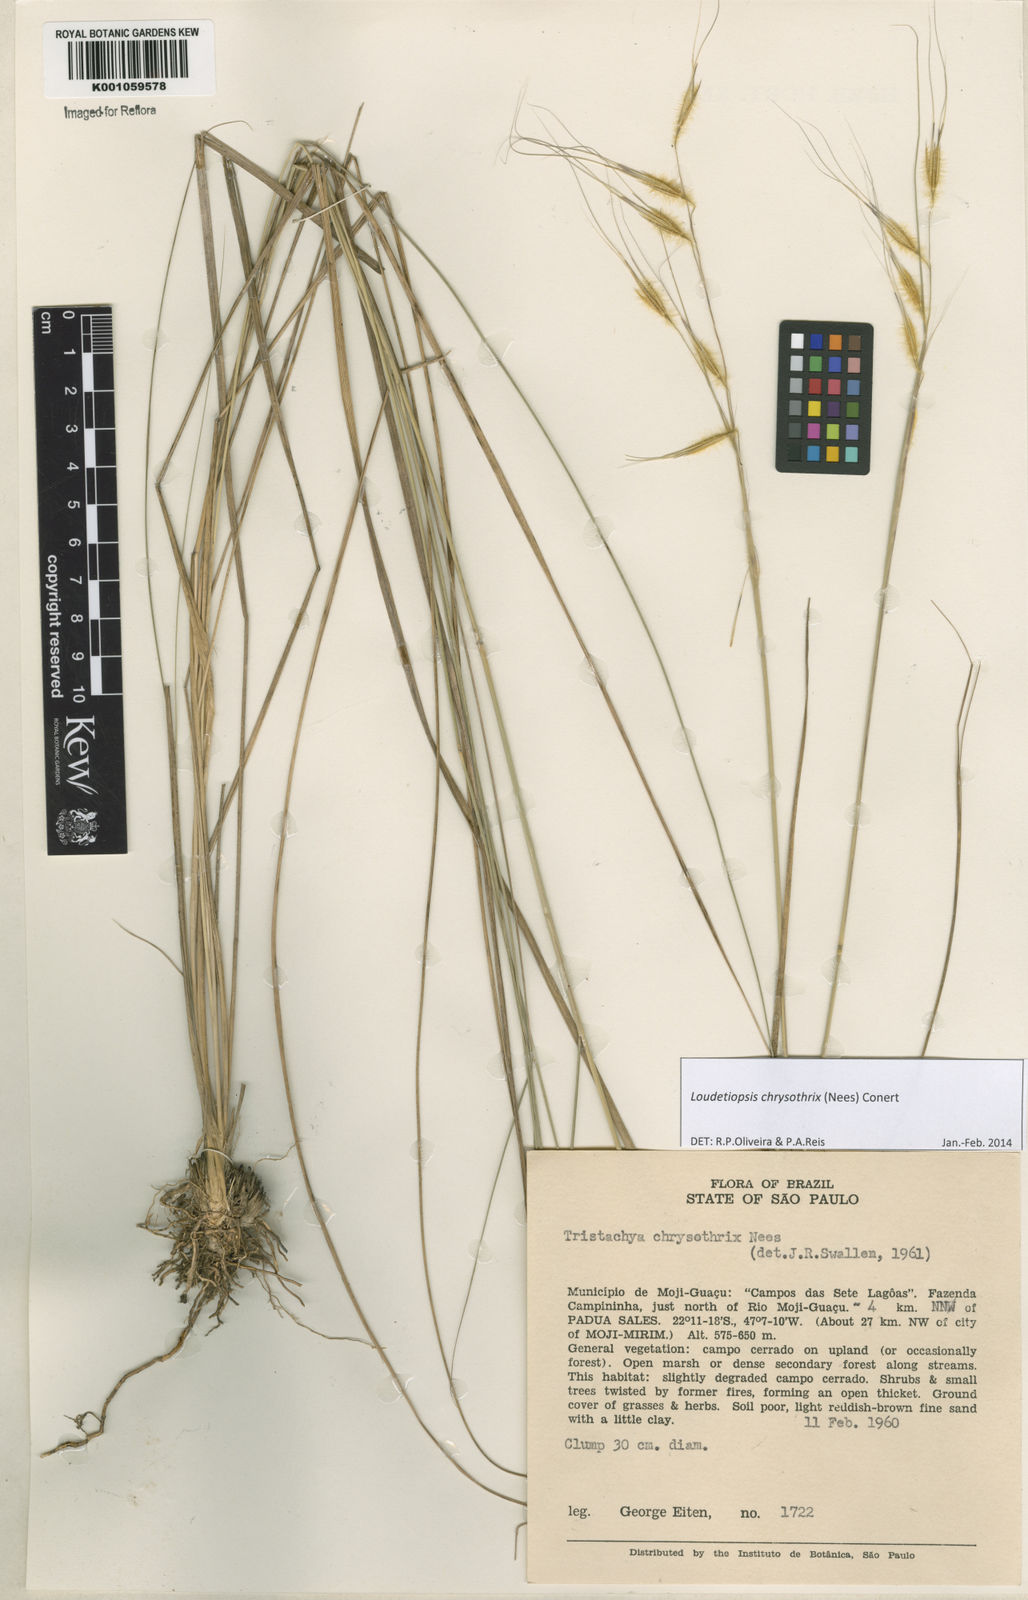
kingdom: Plantae
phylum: Tracheophyta
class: Liliopsida
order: Poales
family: Poaceae
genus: Loudetiopsis
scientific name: Loudetiopsis chrysothrix
